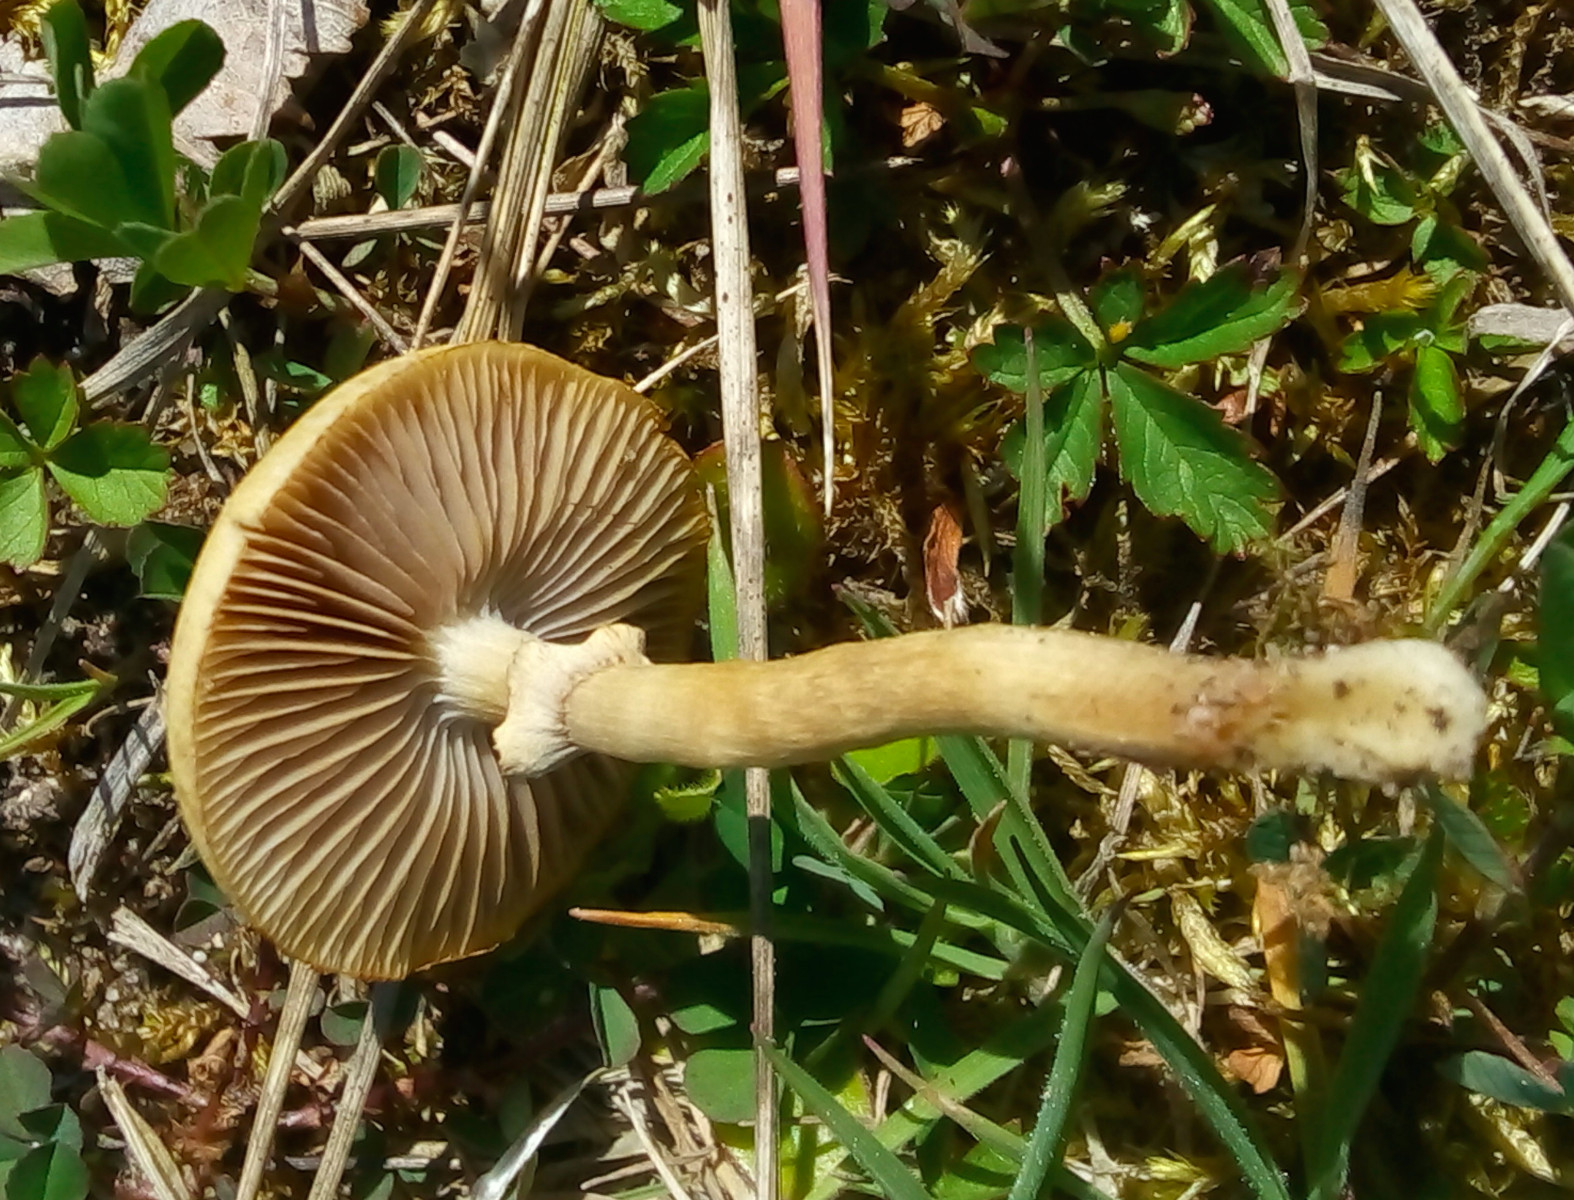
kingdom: Fungi
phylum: Basidiomycota
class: Agaricomycetes
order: Agaricales
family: Strophariaceae
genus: Agrocybe
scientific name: Agrocybe elatella
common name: mose-agerhat
